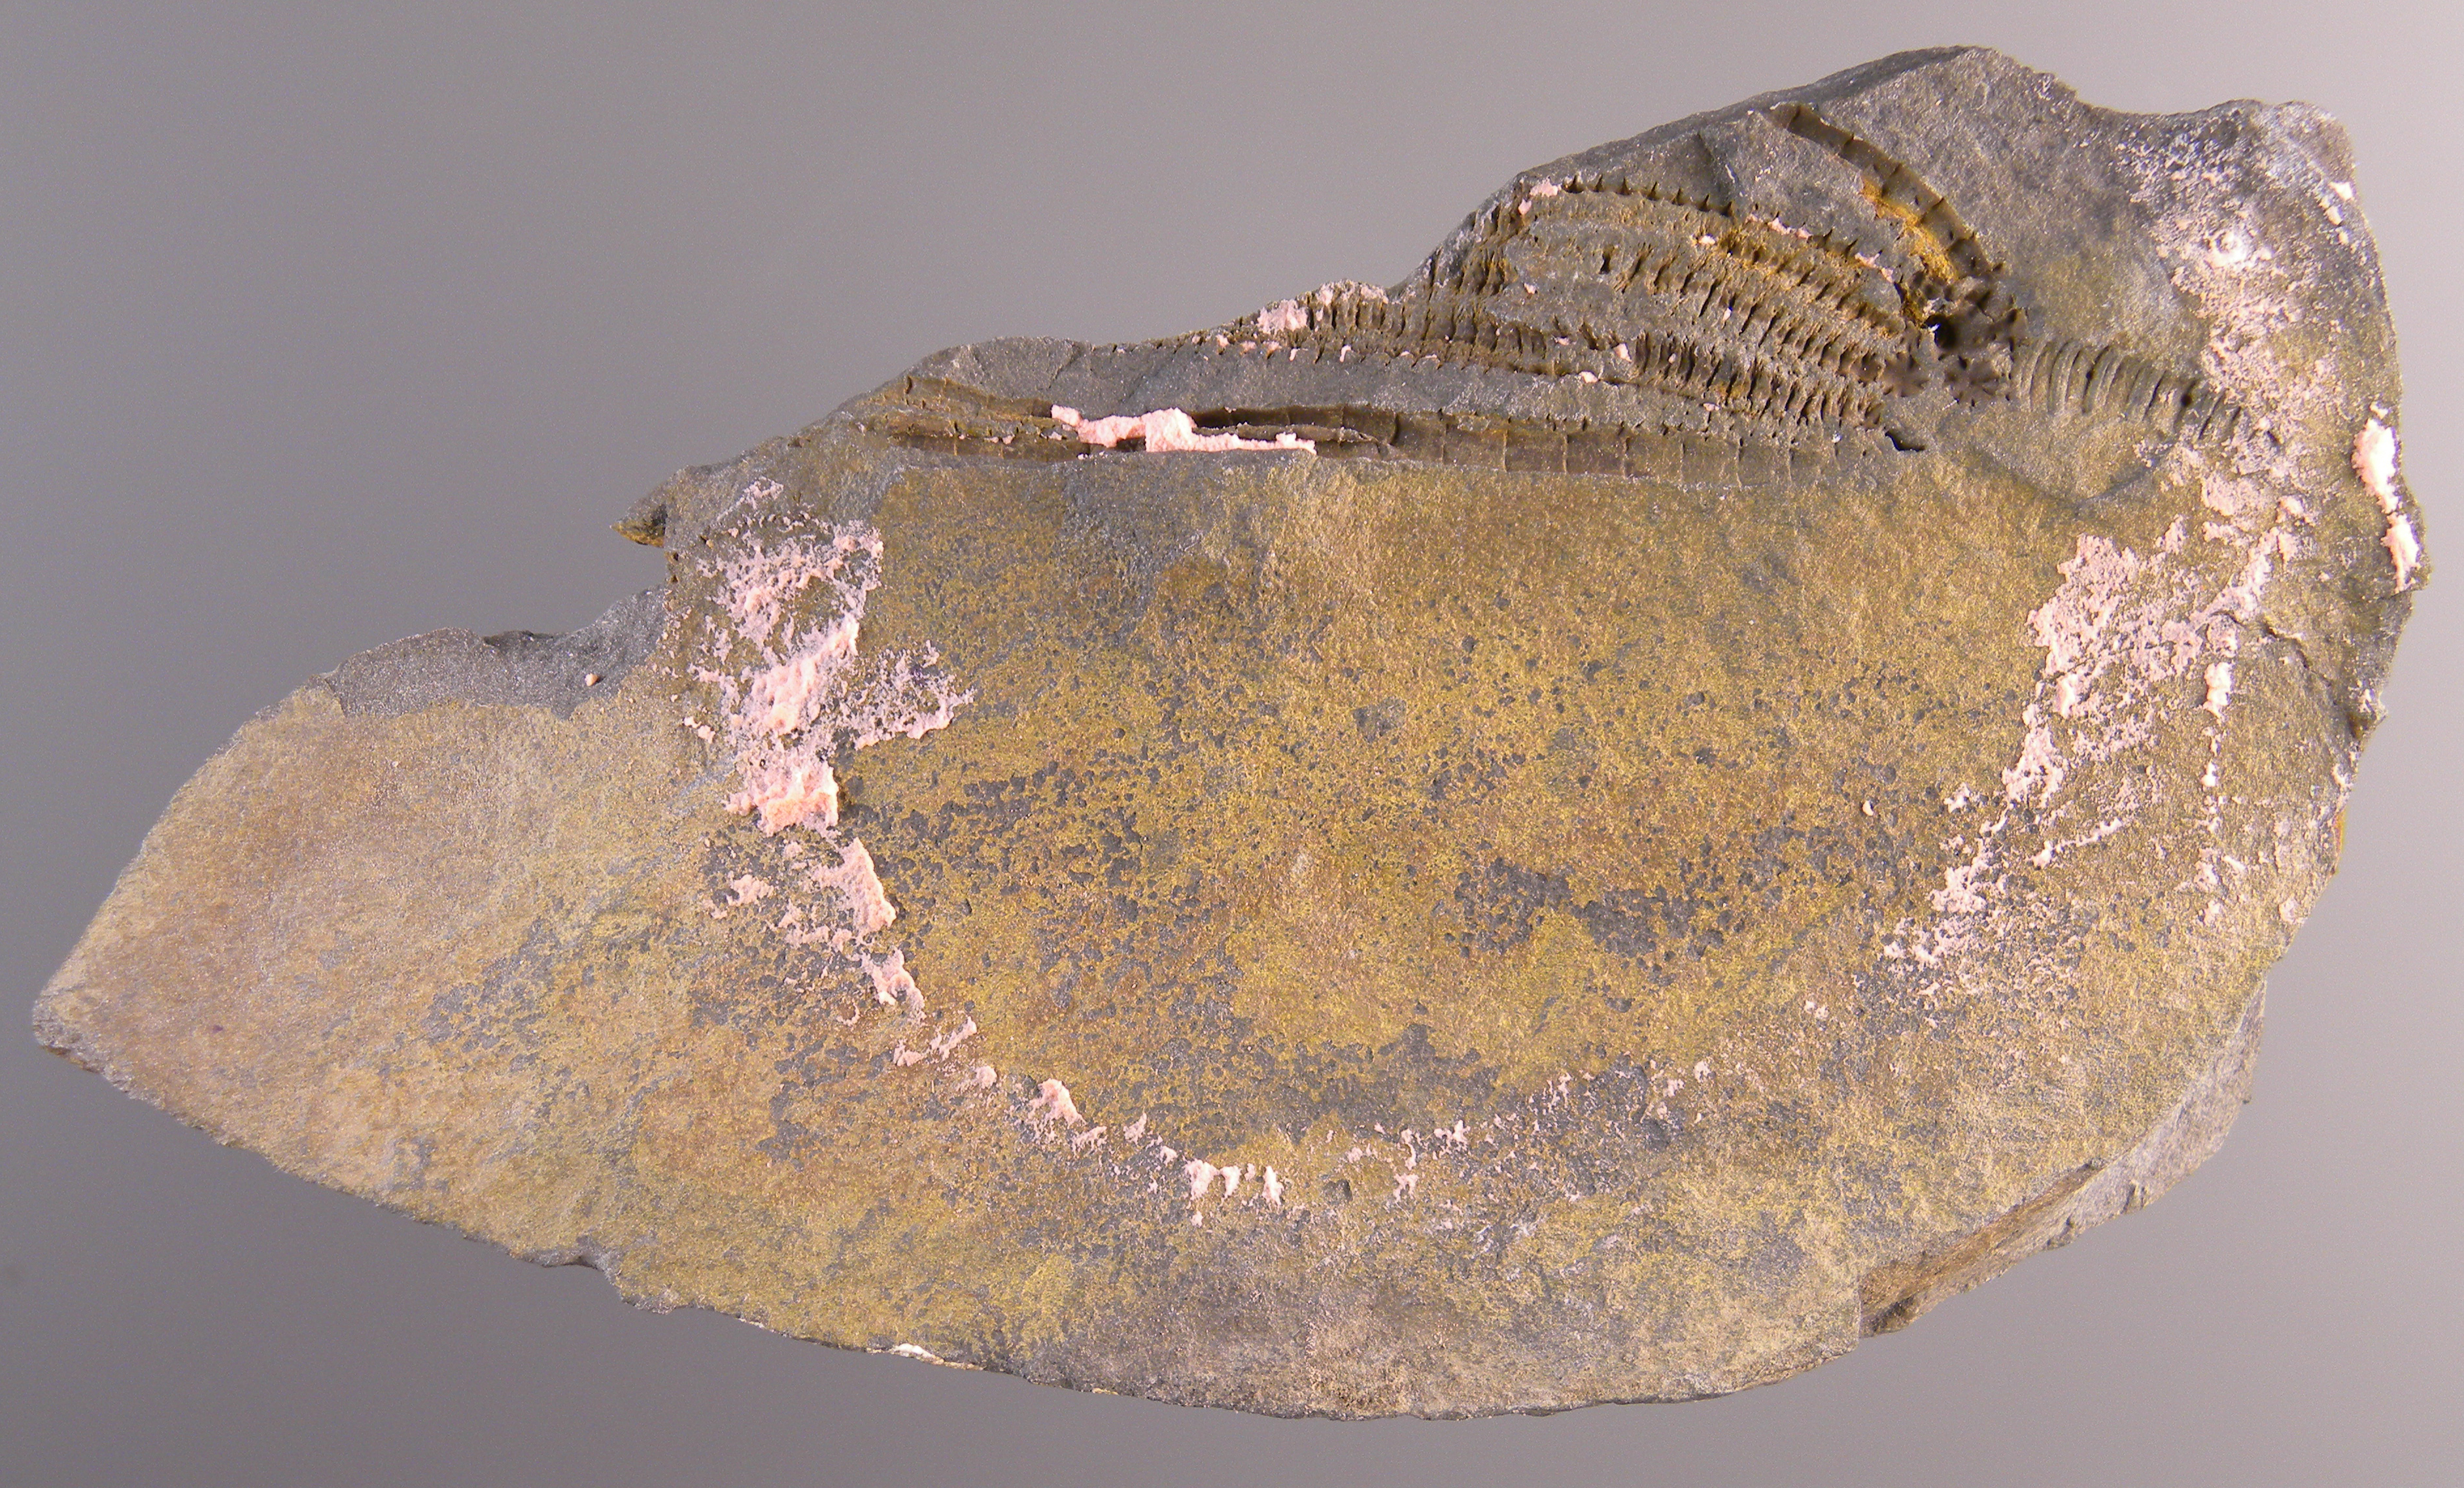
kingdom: Animalia
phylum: Echinodermata
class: Crinoidea
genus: Gastrocrinus
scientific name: Gastrocrinus
